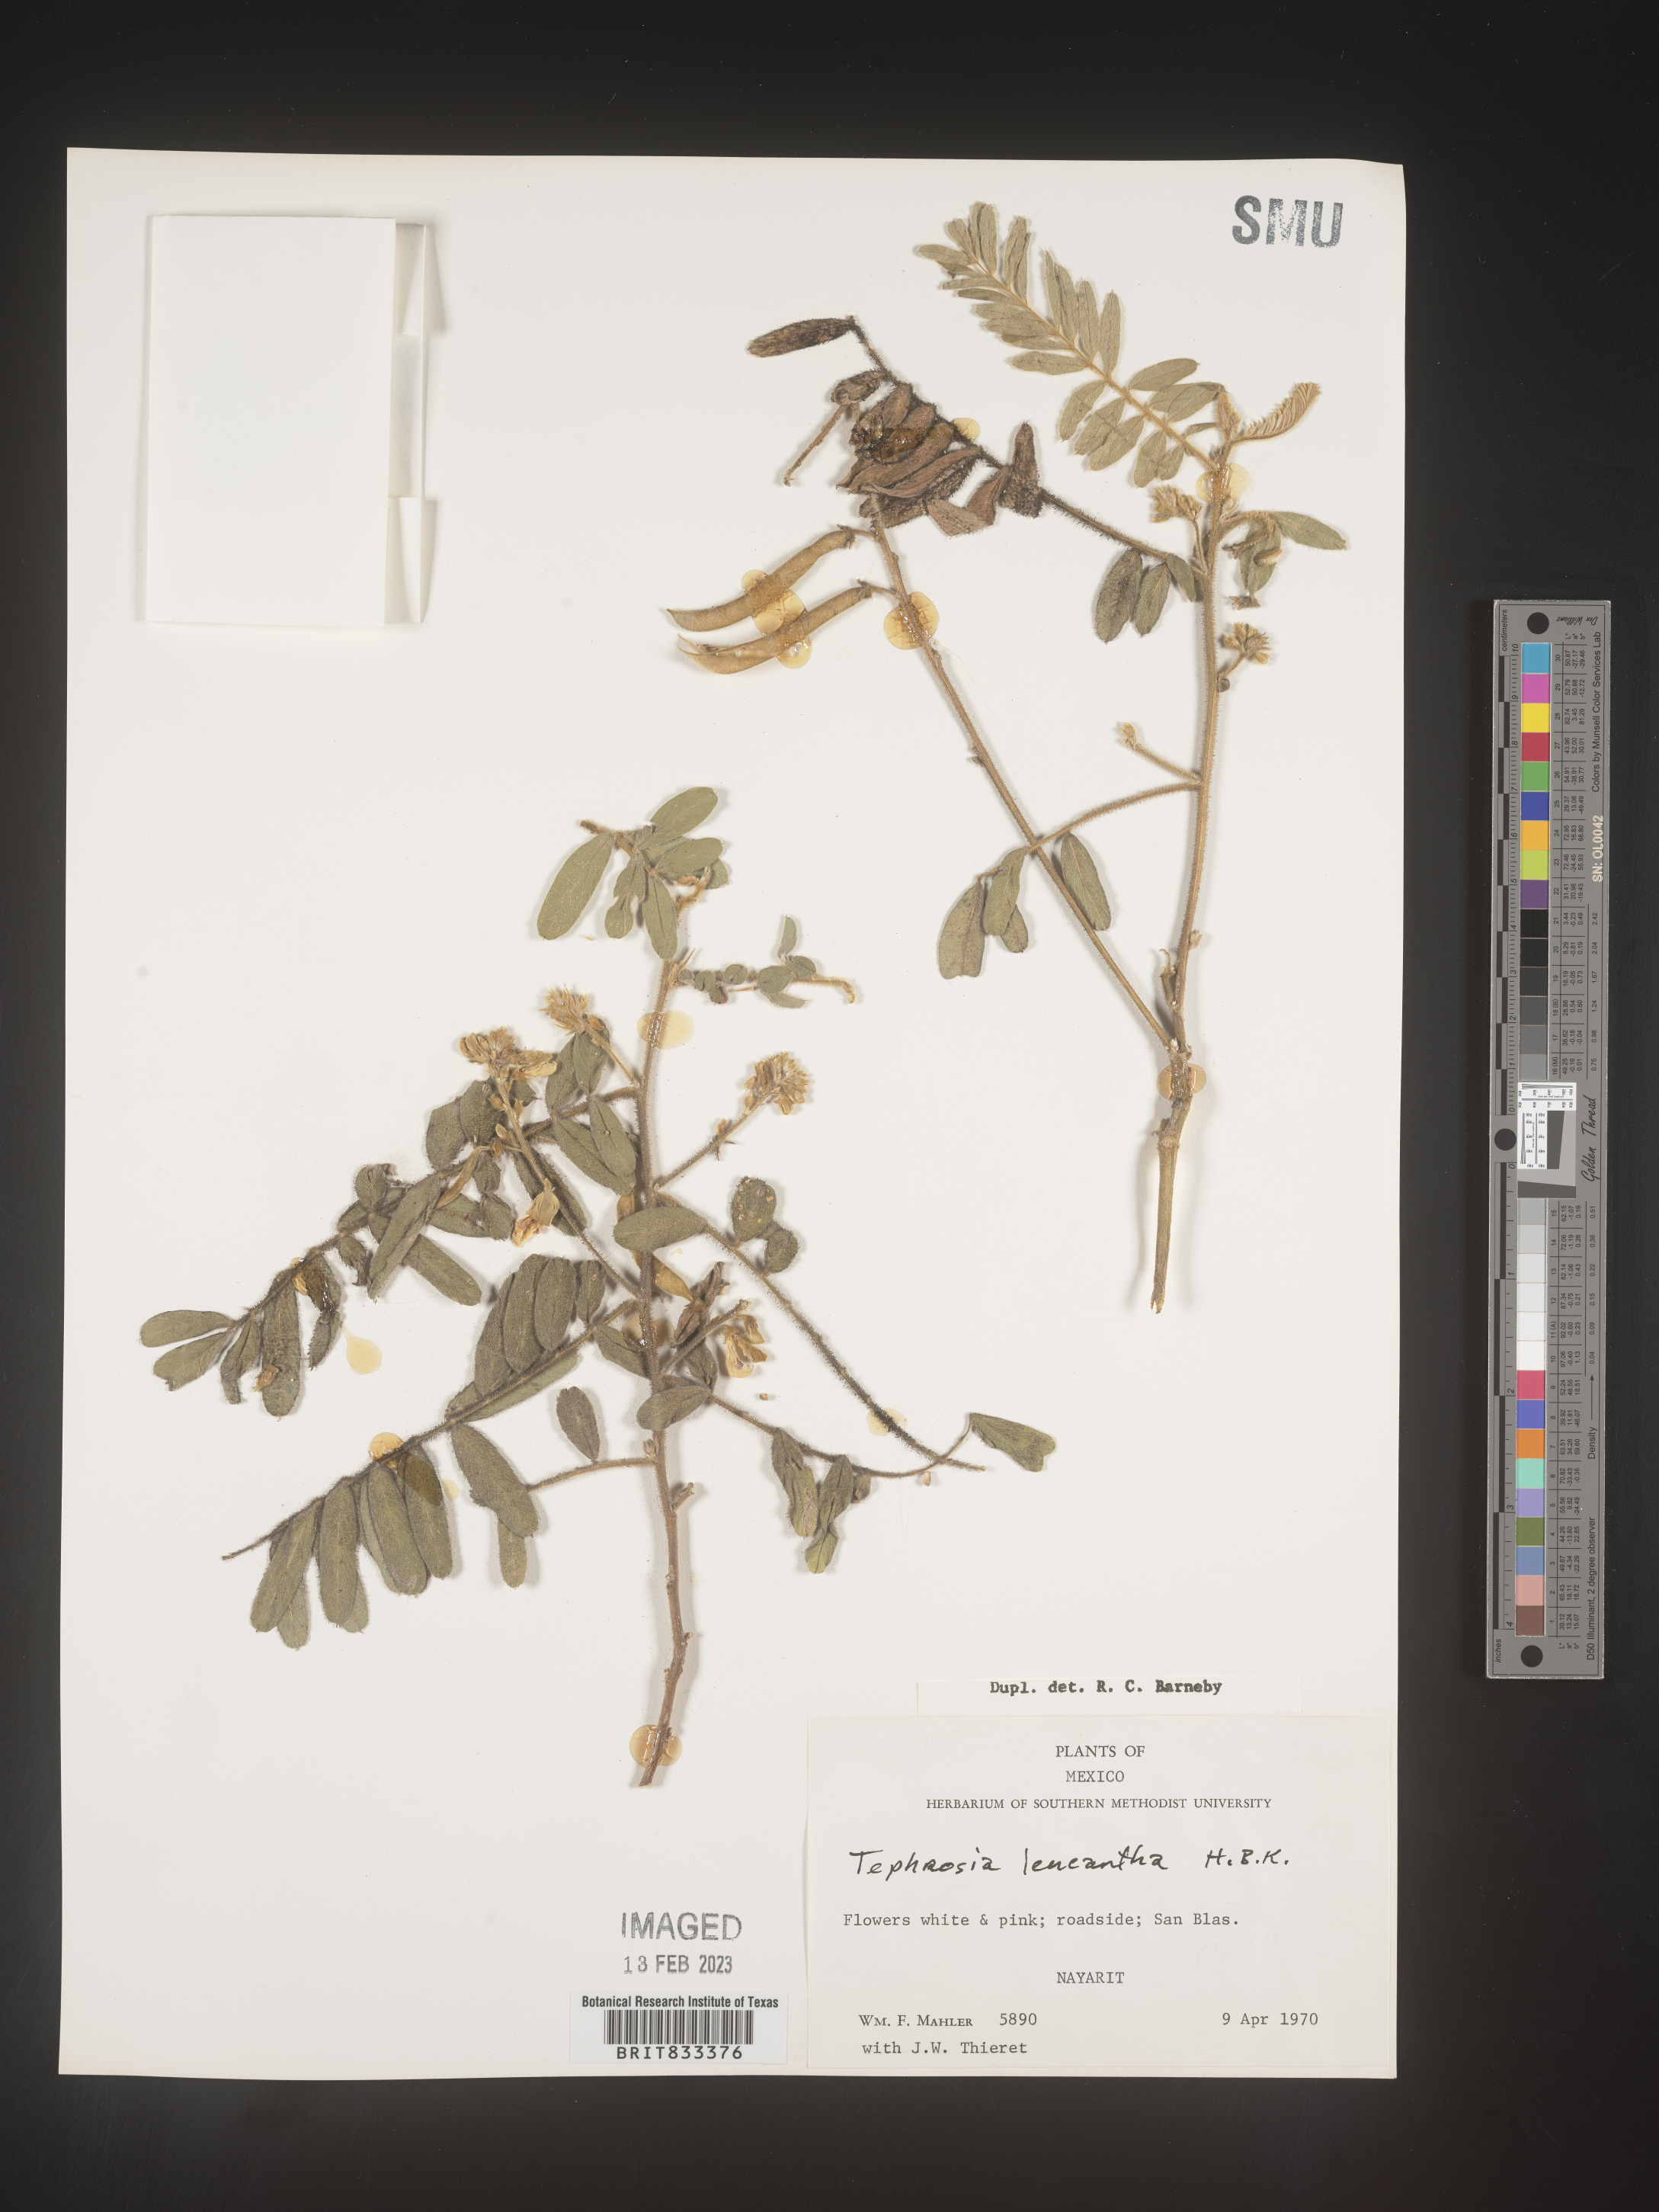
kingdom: Plantae
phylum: Tracheophyta
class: Magnoliopsida
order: Fabales
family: Fabaceae
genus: Tephrosia
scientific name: Tephrosia
